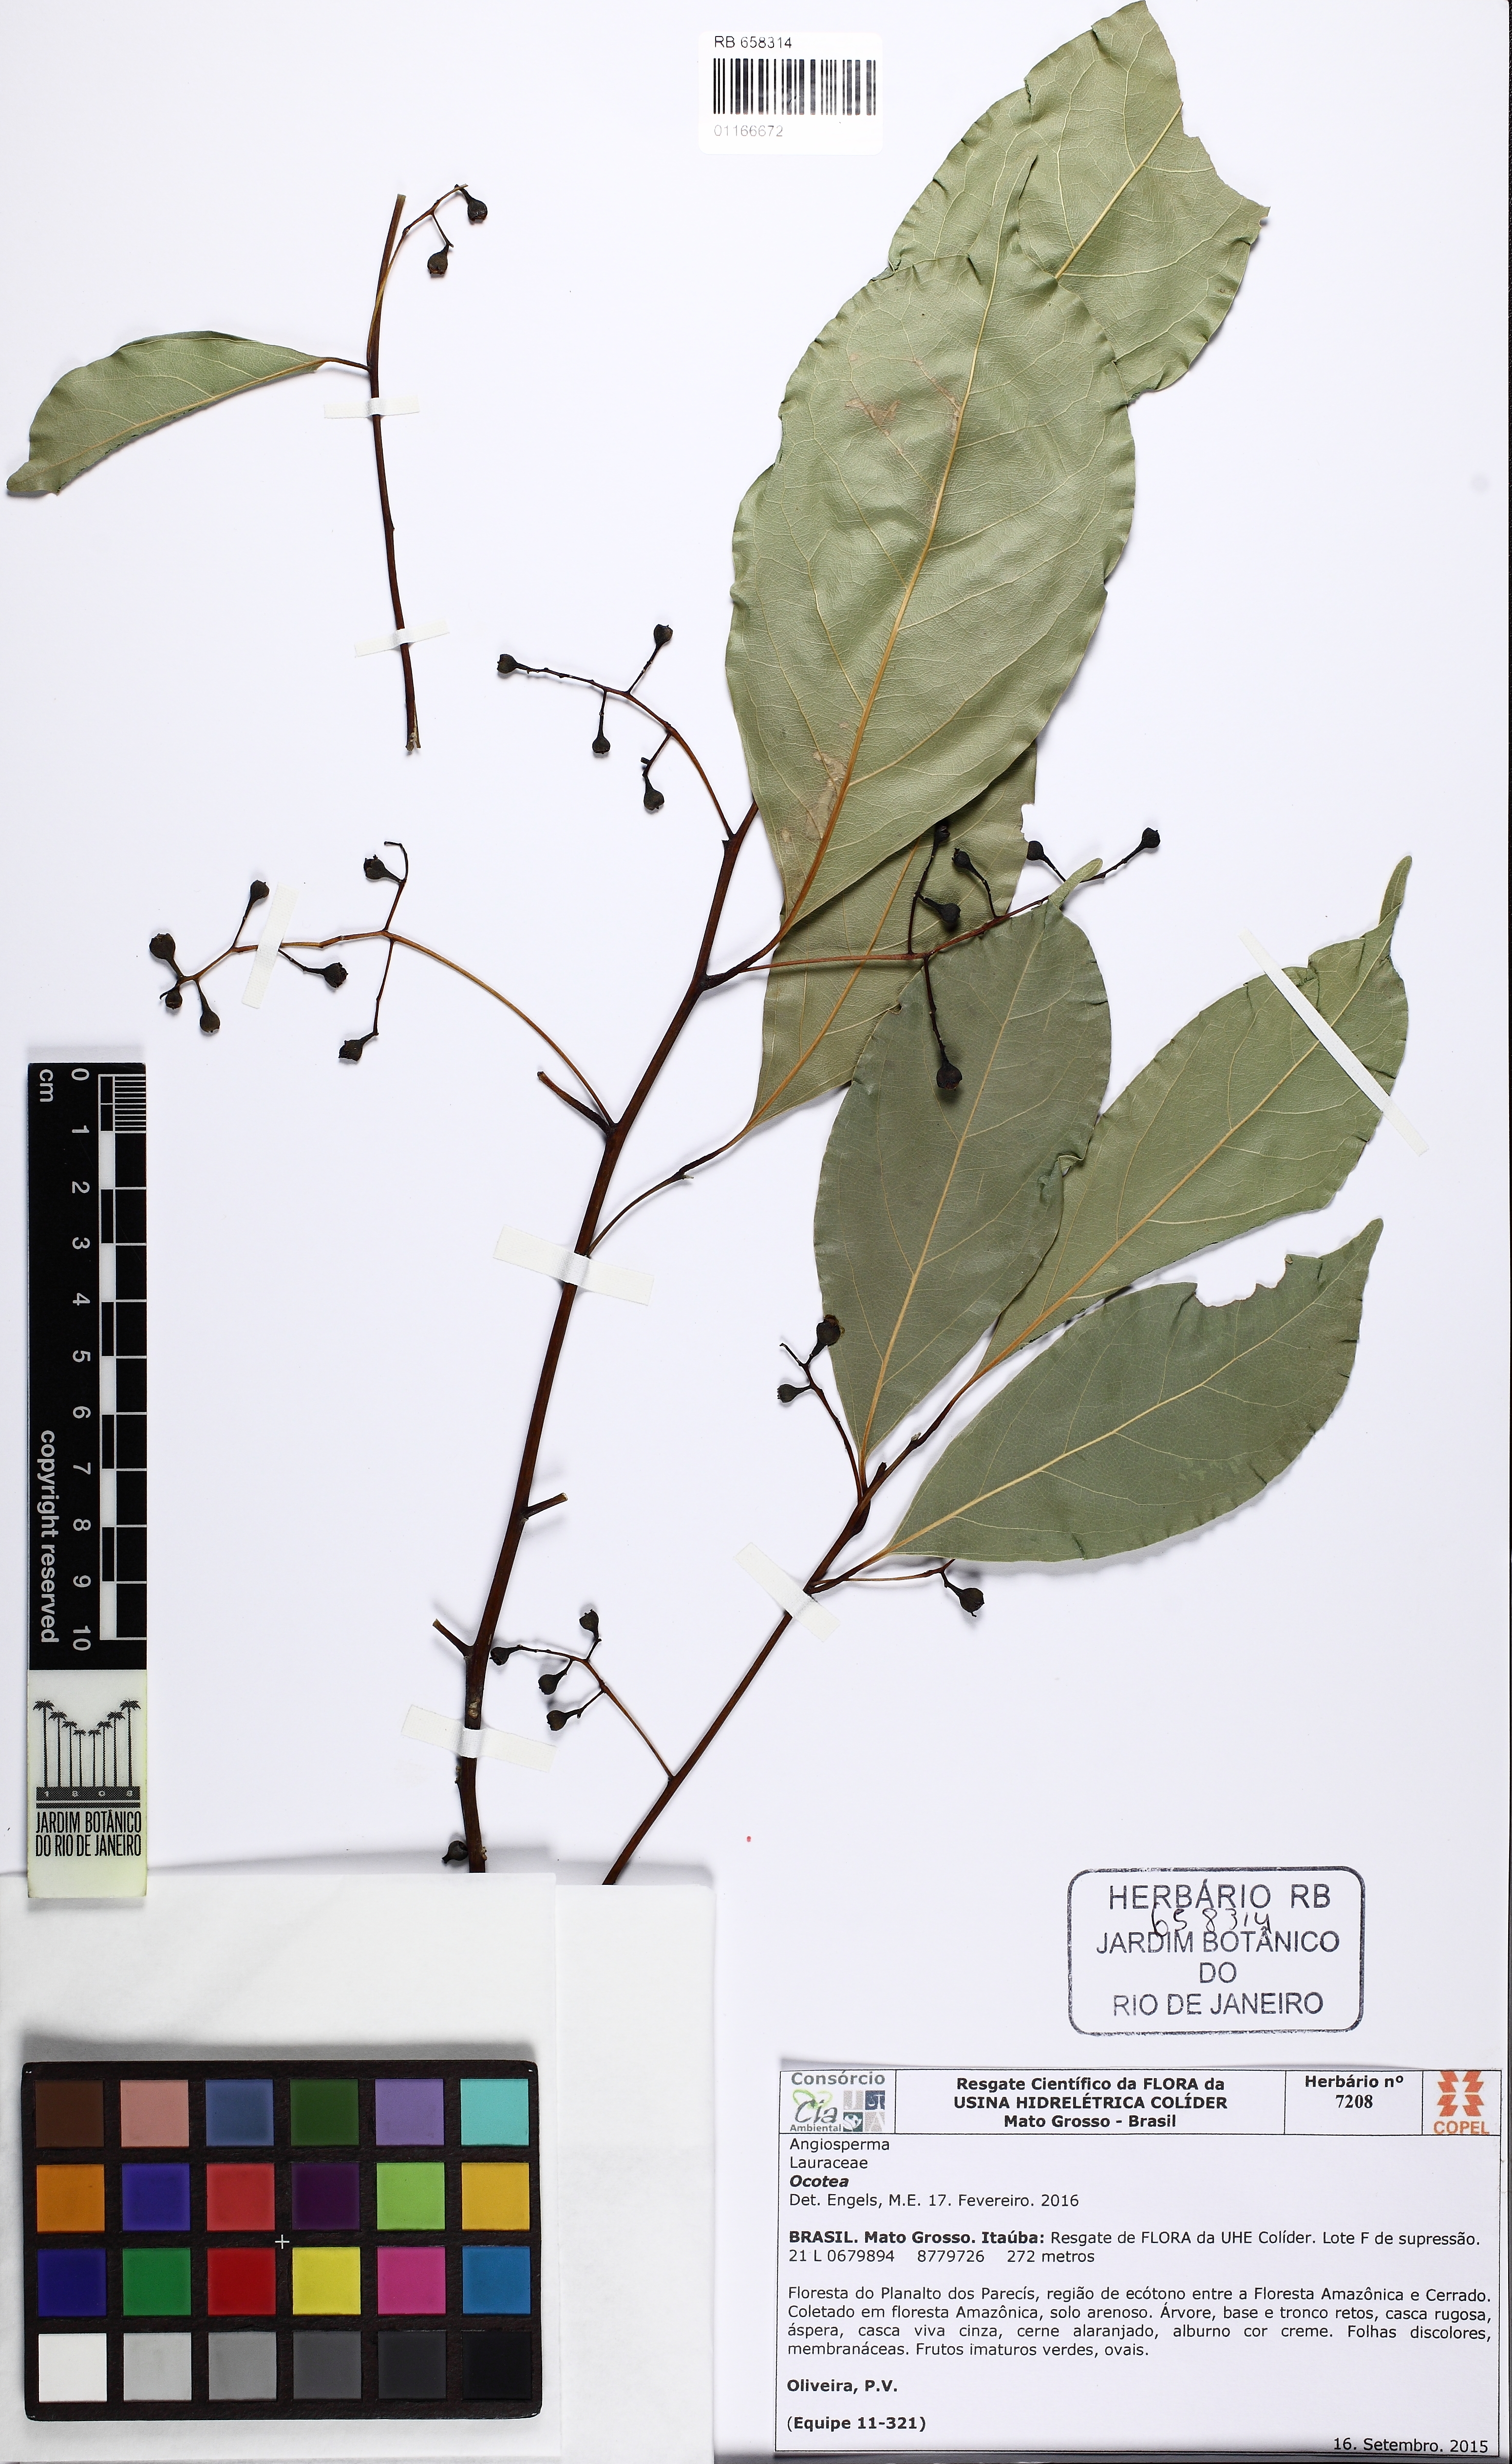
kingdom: Plantae
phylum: Tracheophyta
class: Magnoliopsida
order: Laurales
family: Lauraceae
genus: Ocotea
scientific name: Ocotea
